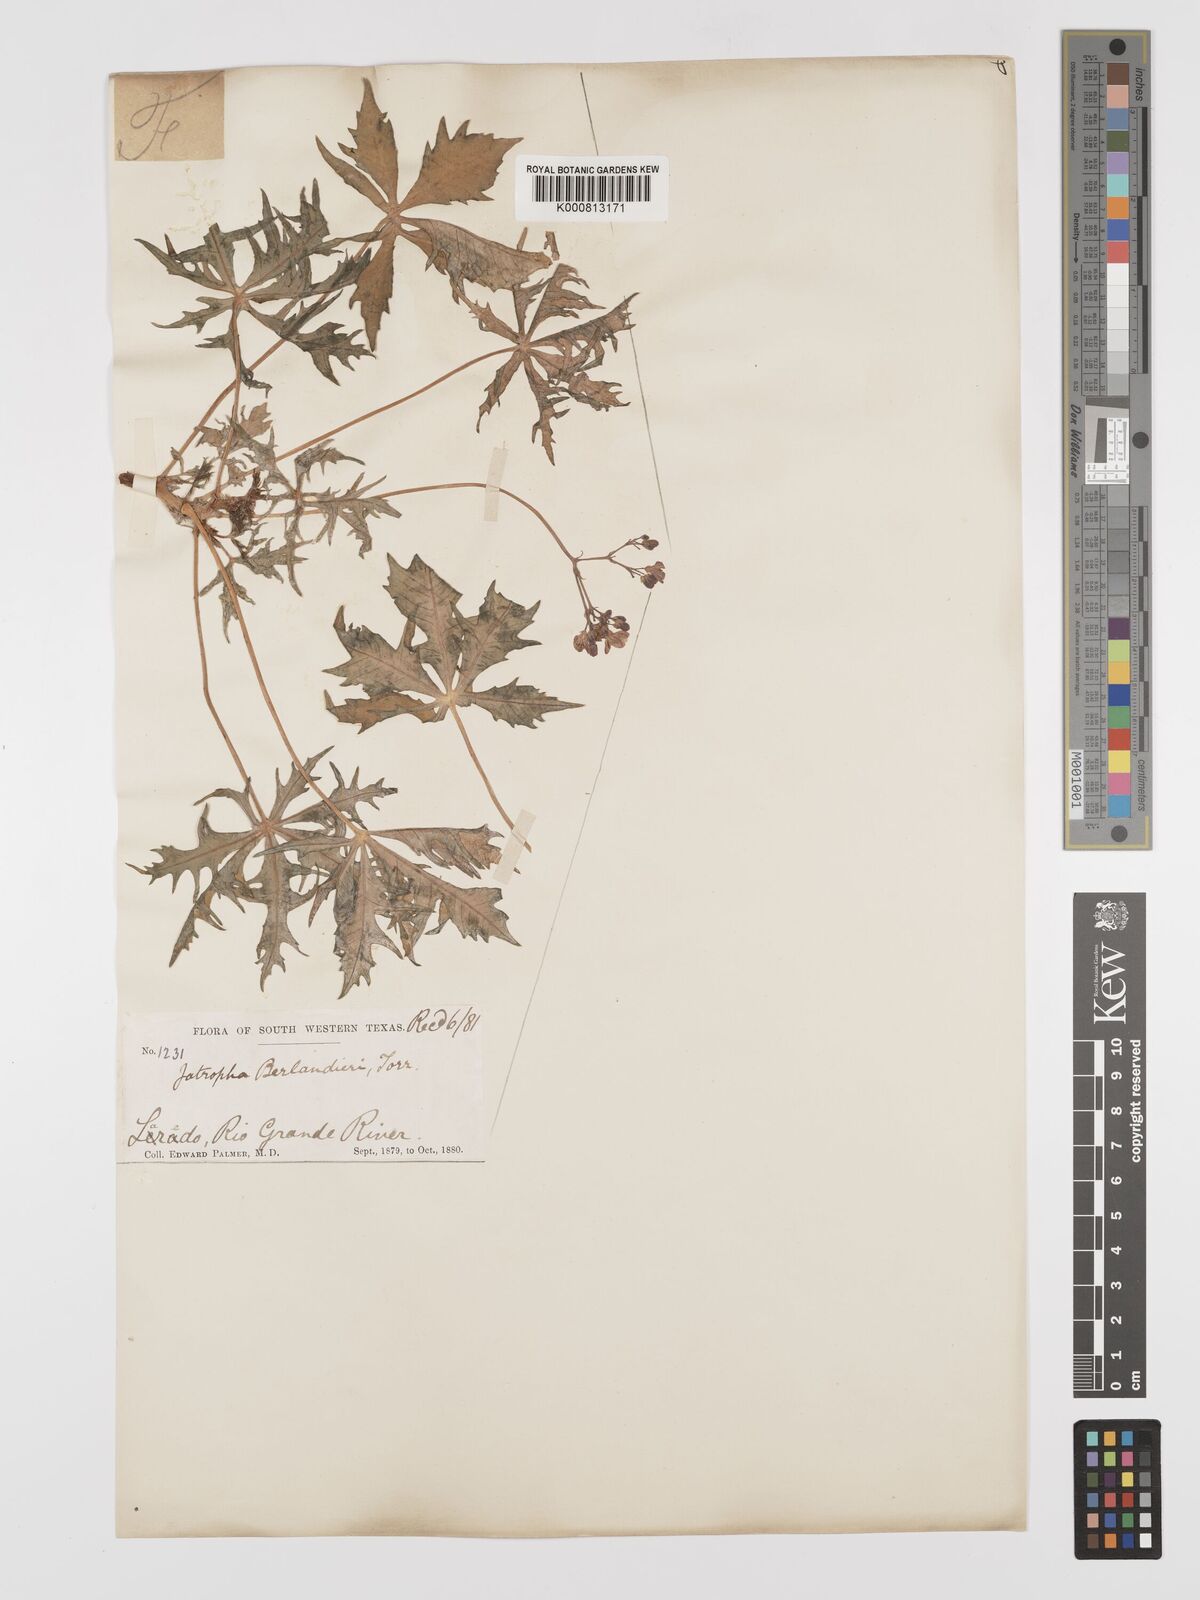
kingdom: Plantae
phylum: Tracheophyta
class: Magnoliopsida
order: Malpighiales
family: Euphorbiaceae
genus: Jatropha
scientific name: Jatropha
